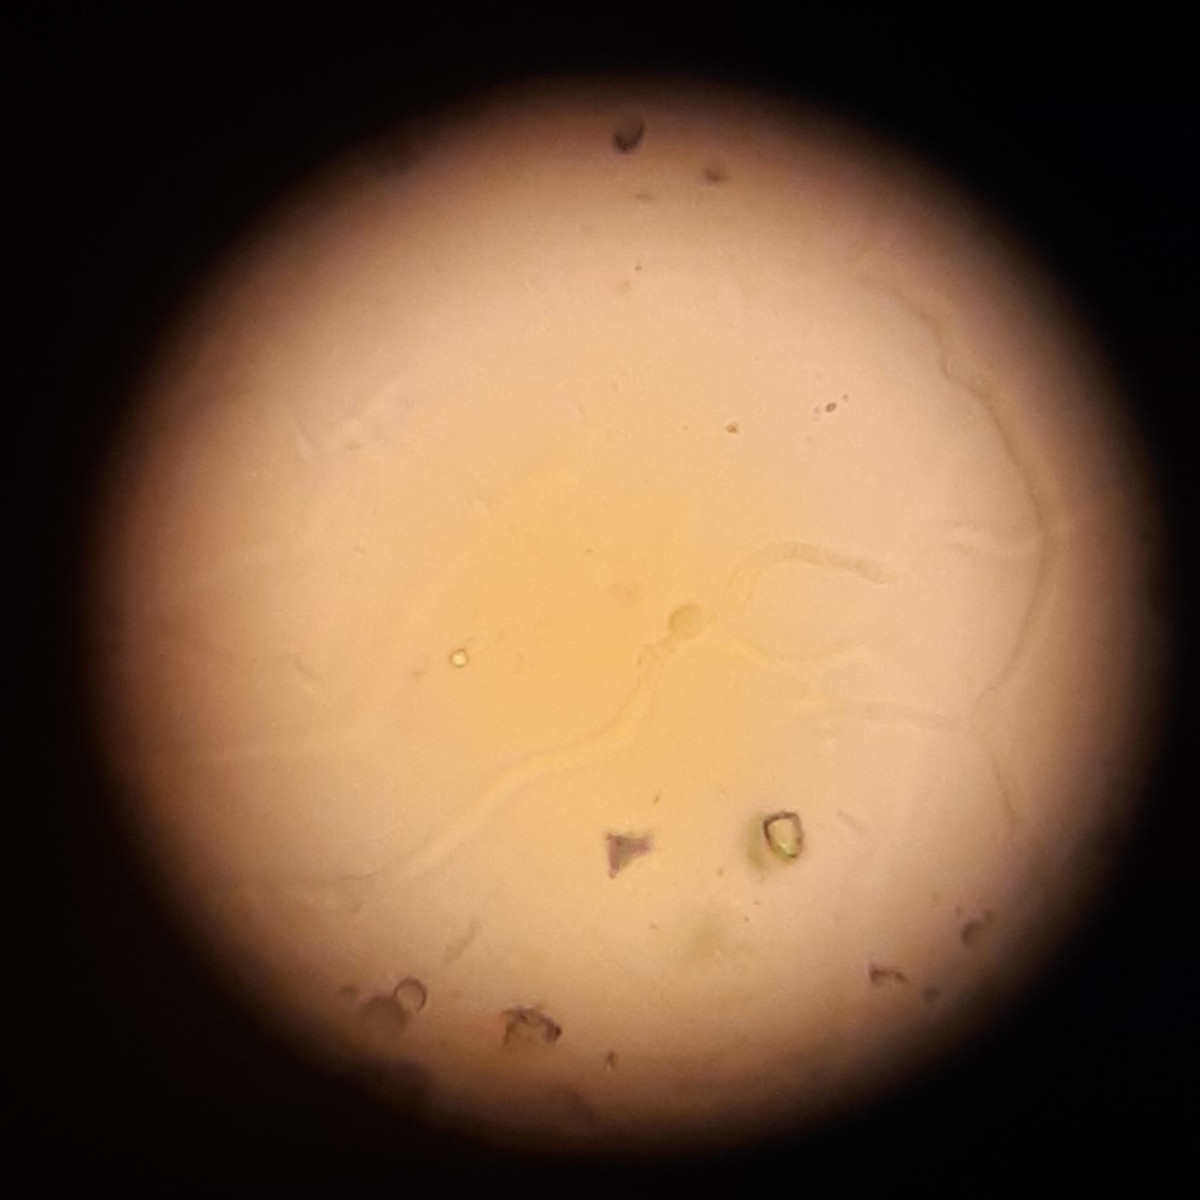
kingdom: Fungi
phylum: Basidiomycota
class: Dacrymycetes
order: Dacrymycetales
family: Dacrymycetaceae
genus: Dacrymyces
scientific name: Dacrymyces
